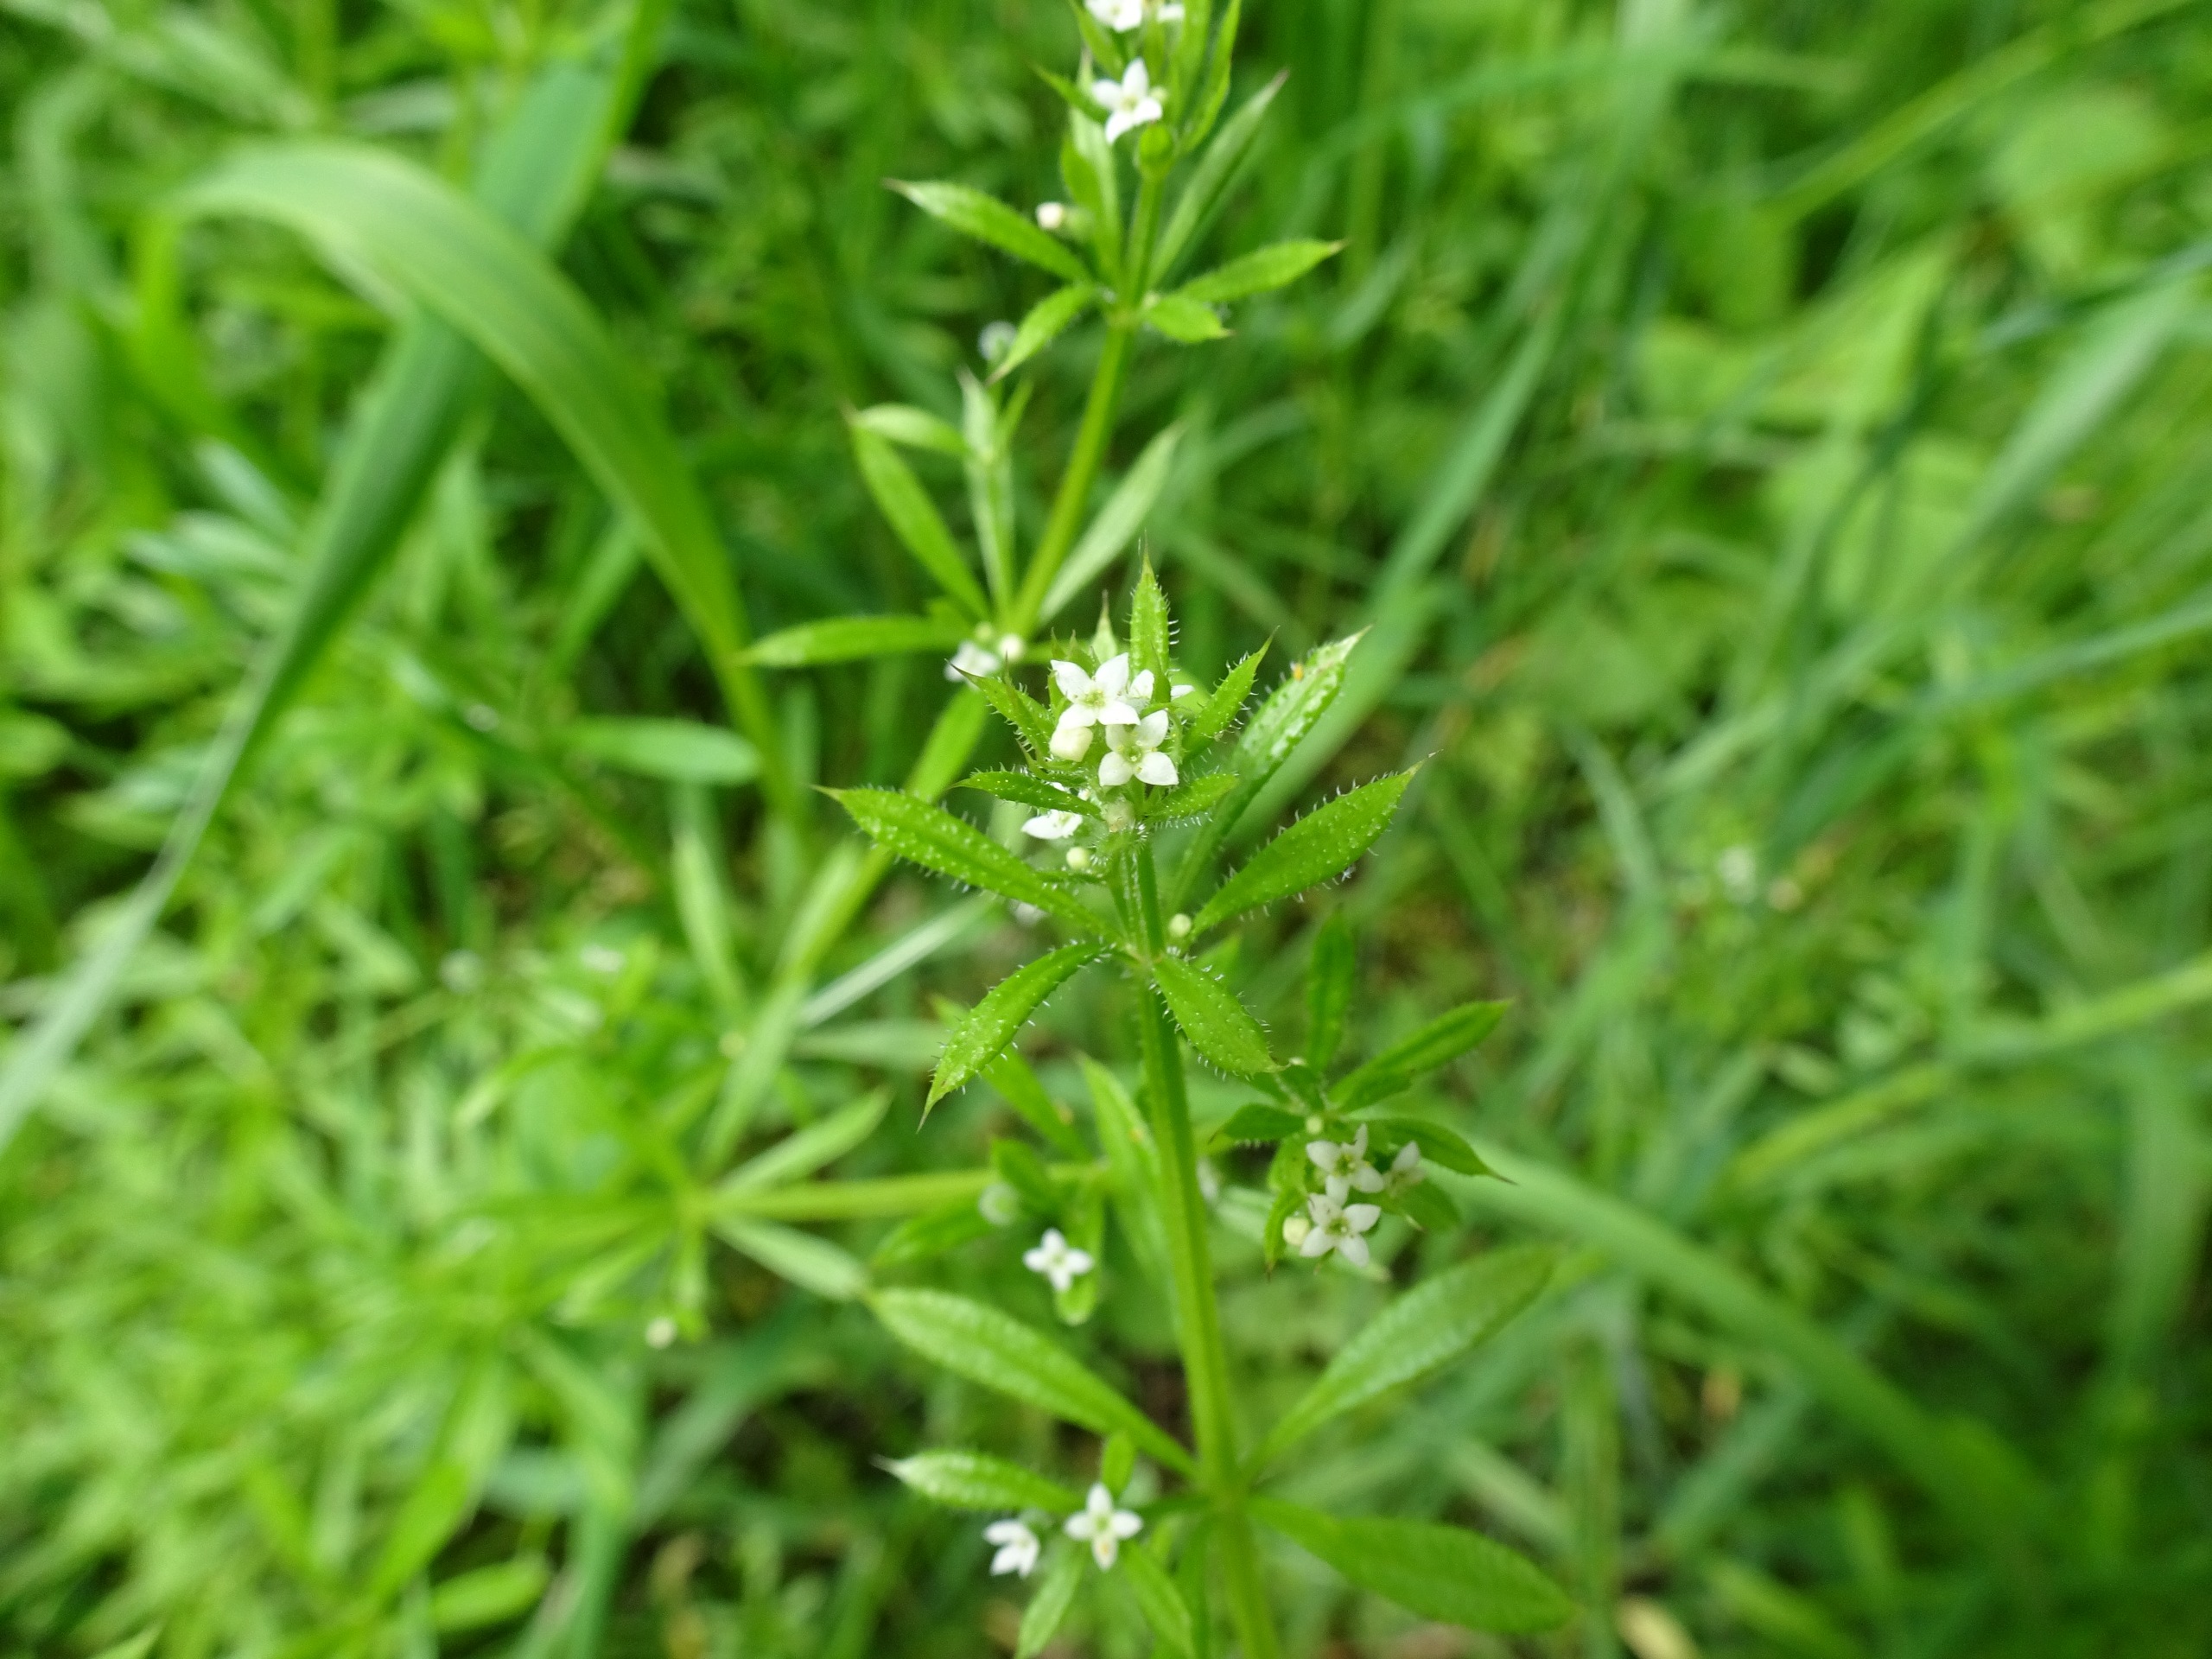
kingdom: Plantae
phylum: Tracheophyta
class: Magnoliopsida
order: Gentianales
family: Rubiaceae
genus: Galium
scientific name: Galium aparine
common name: Burre-snerre
